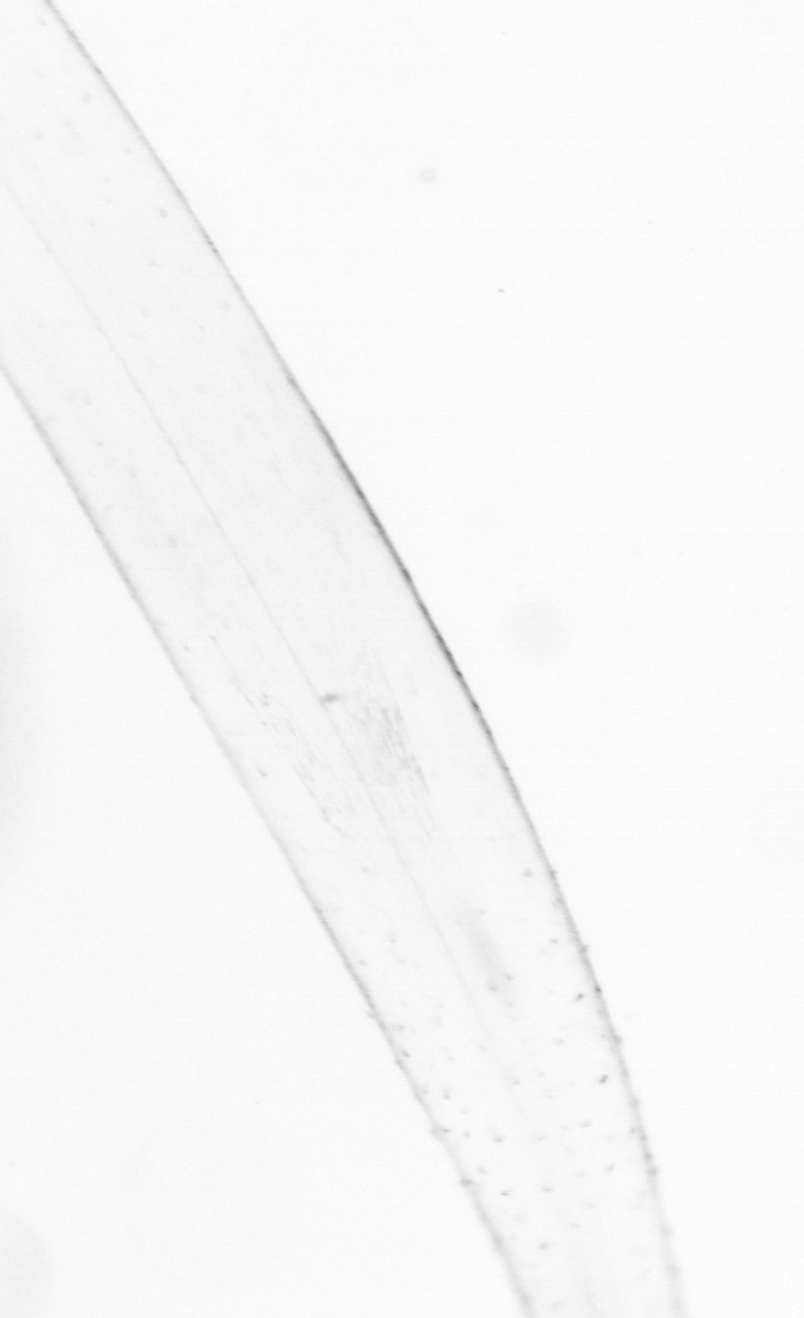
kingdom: Animalia
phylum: Chaetognatha
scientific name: Chaetognatha
